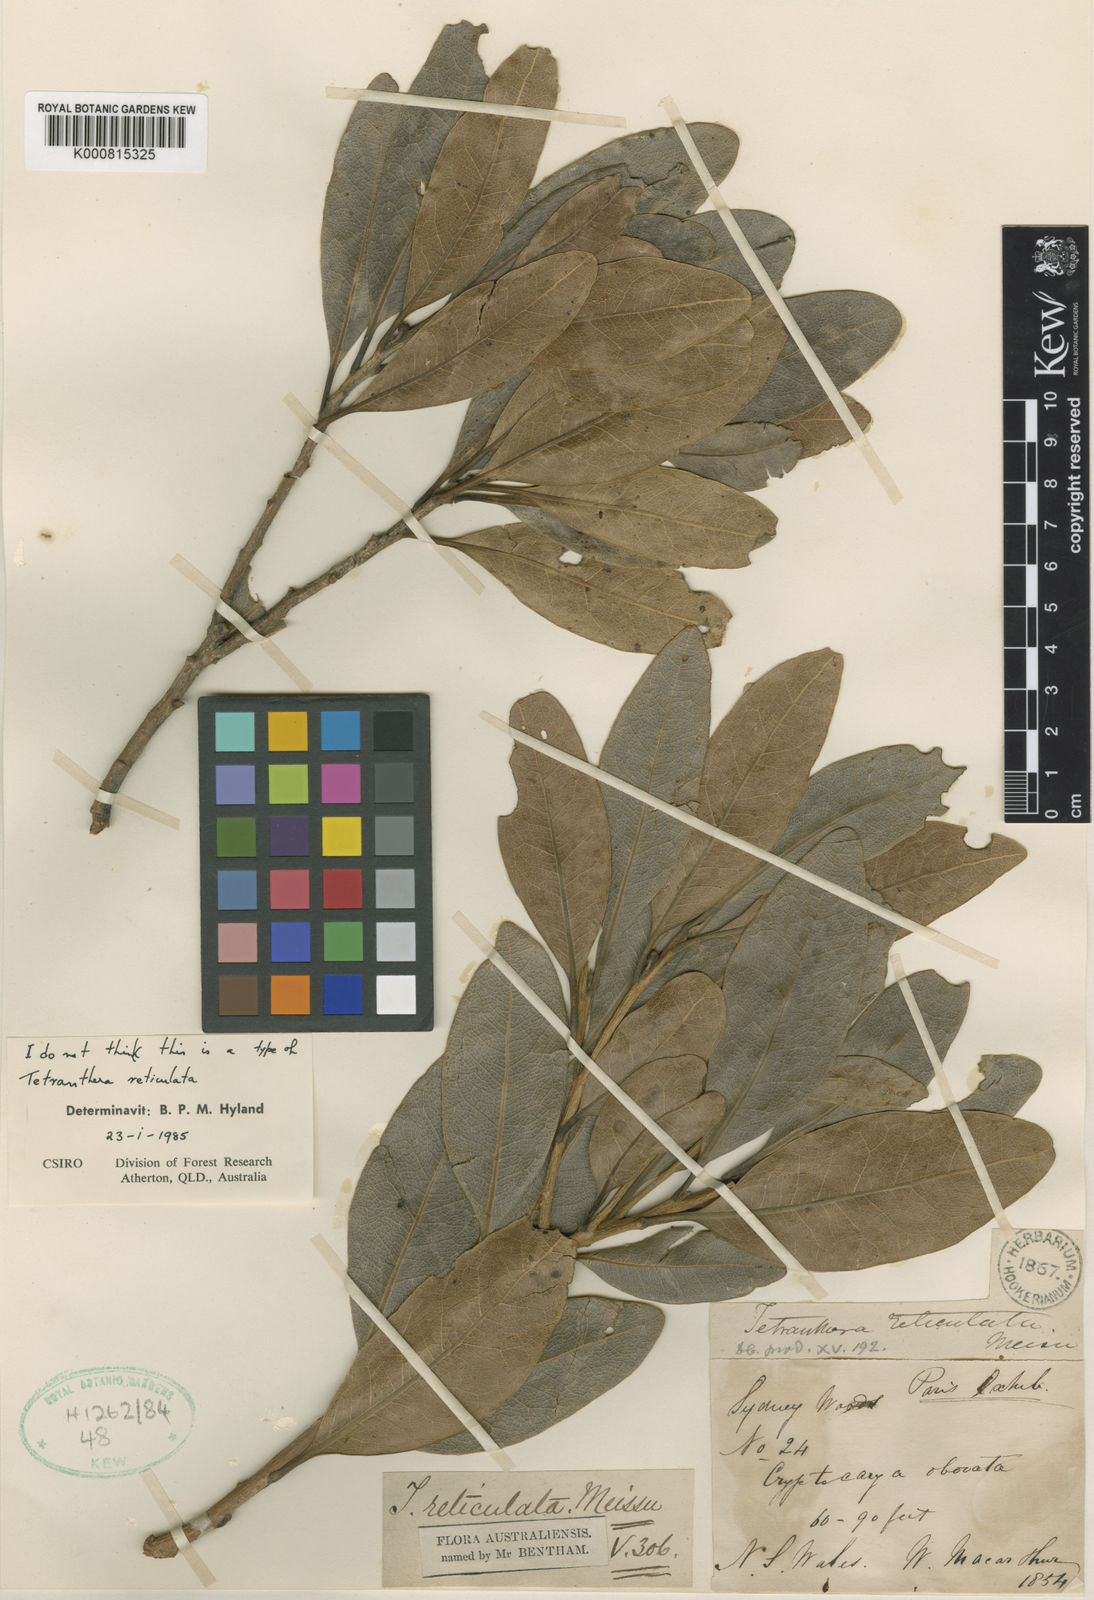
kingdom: Plantae
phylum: Tracheophyta
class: Magnoliopsida
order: Laurales
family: Lauraceae
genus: Litsea
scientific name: Litsea reticulata
